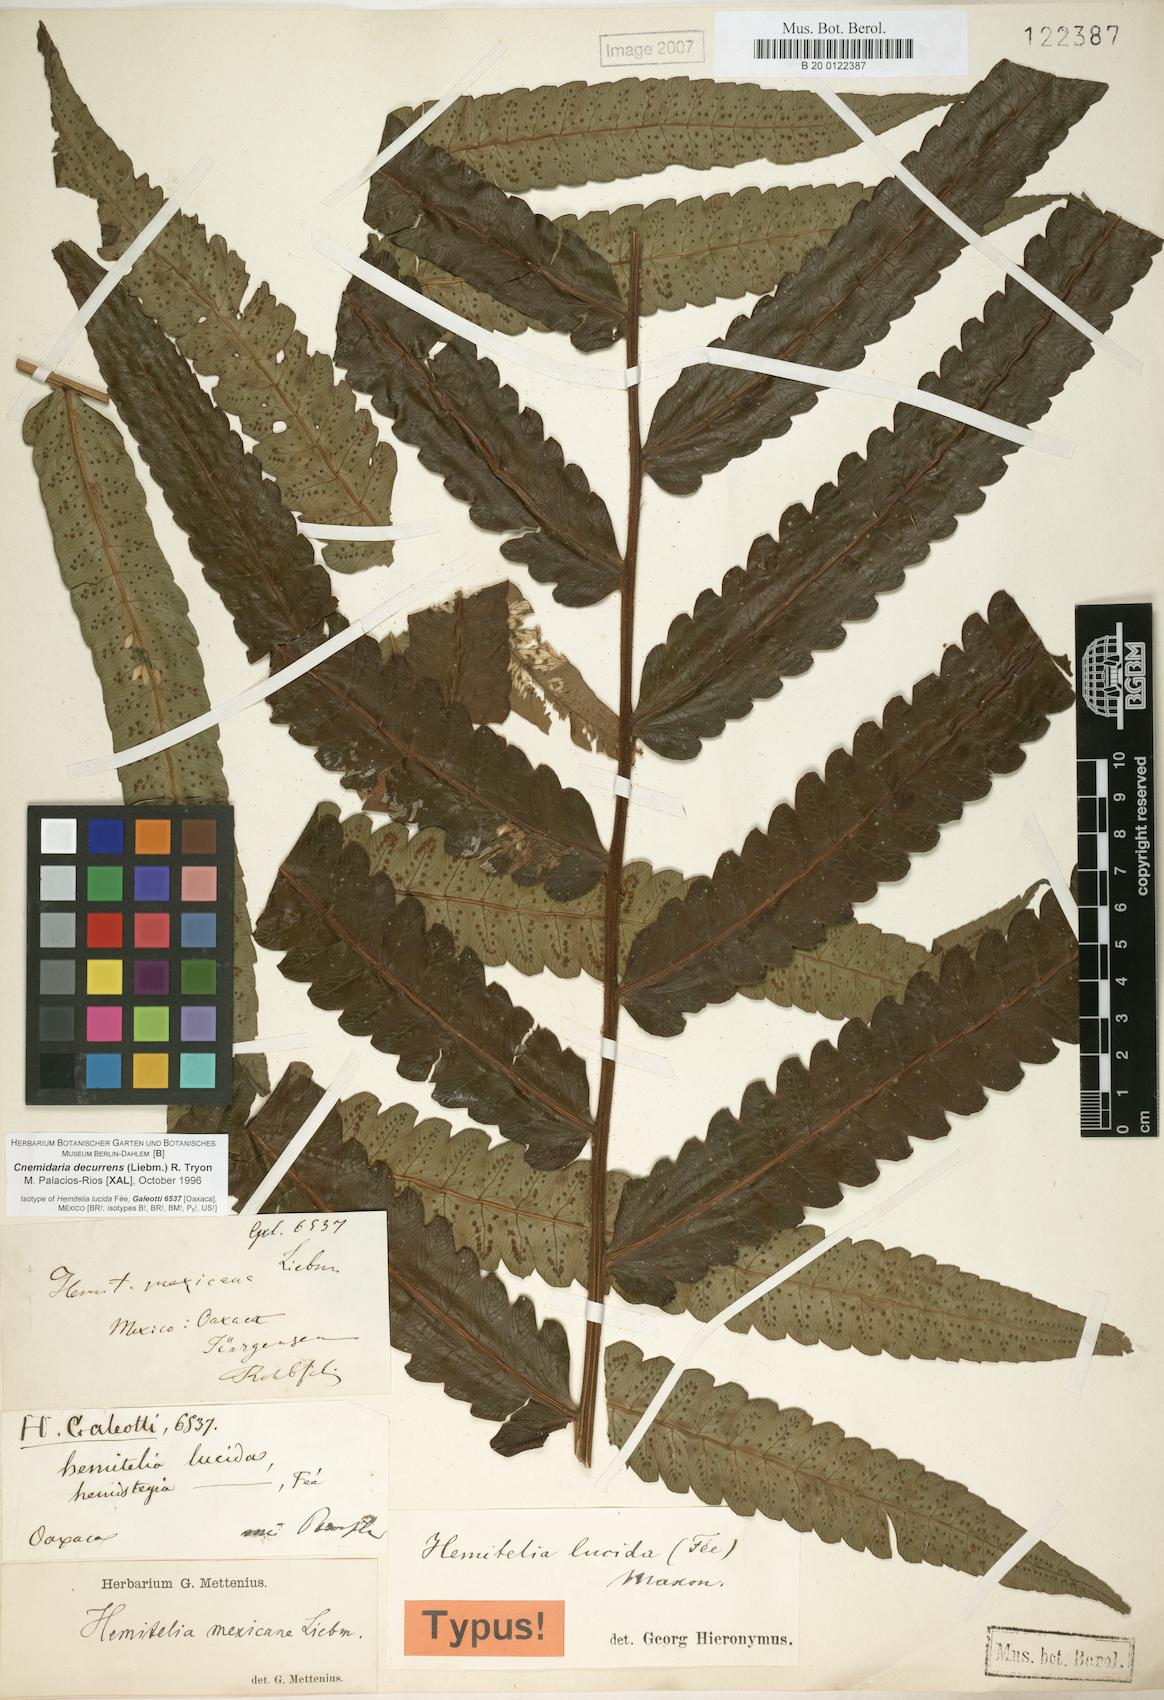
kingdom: Plantae
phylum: Tracheophyta
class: Polypodiopsida
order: Cyatheales
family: Cyatheaceae
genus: Cyathea
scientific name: Cyathea liebmannii
